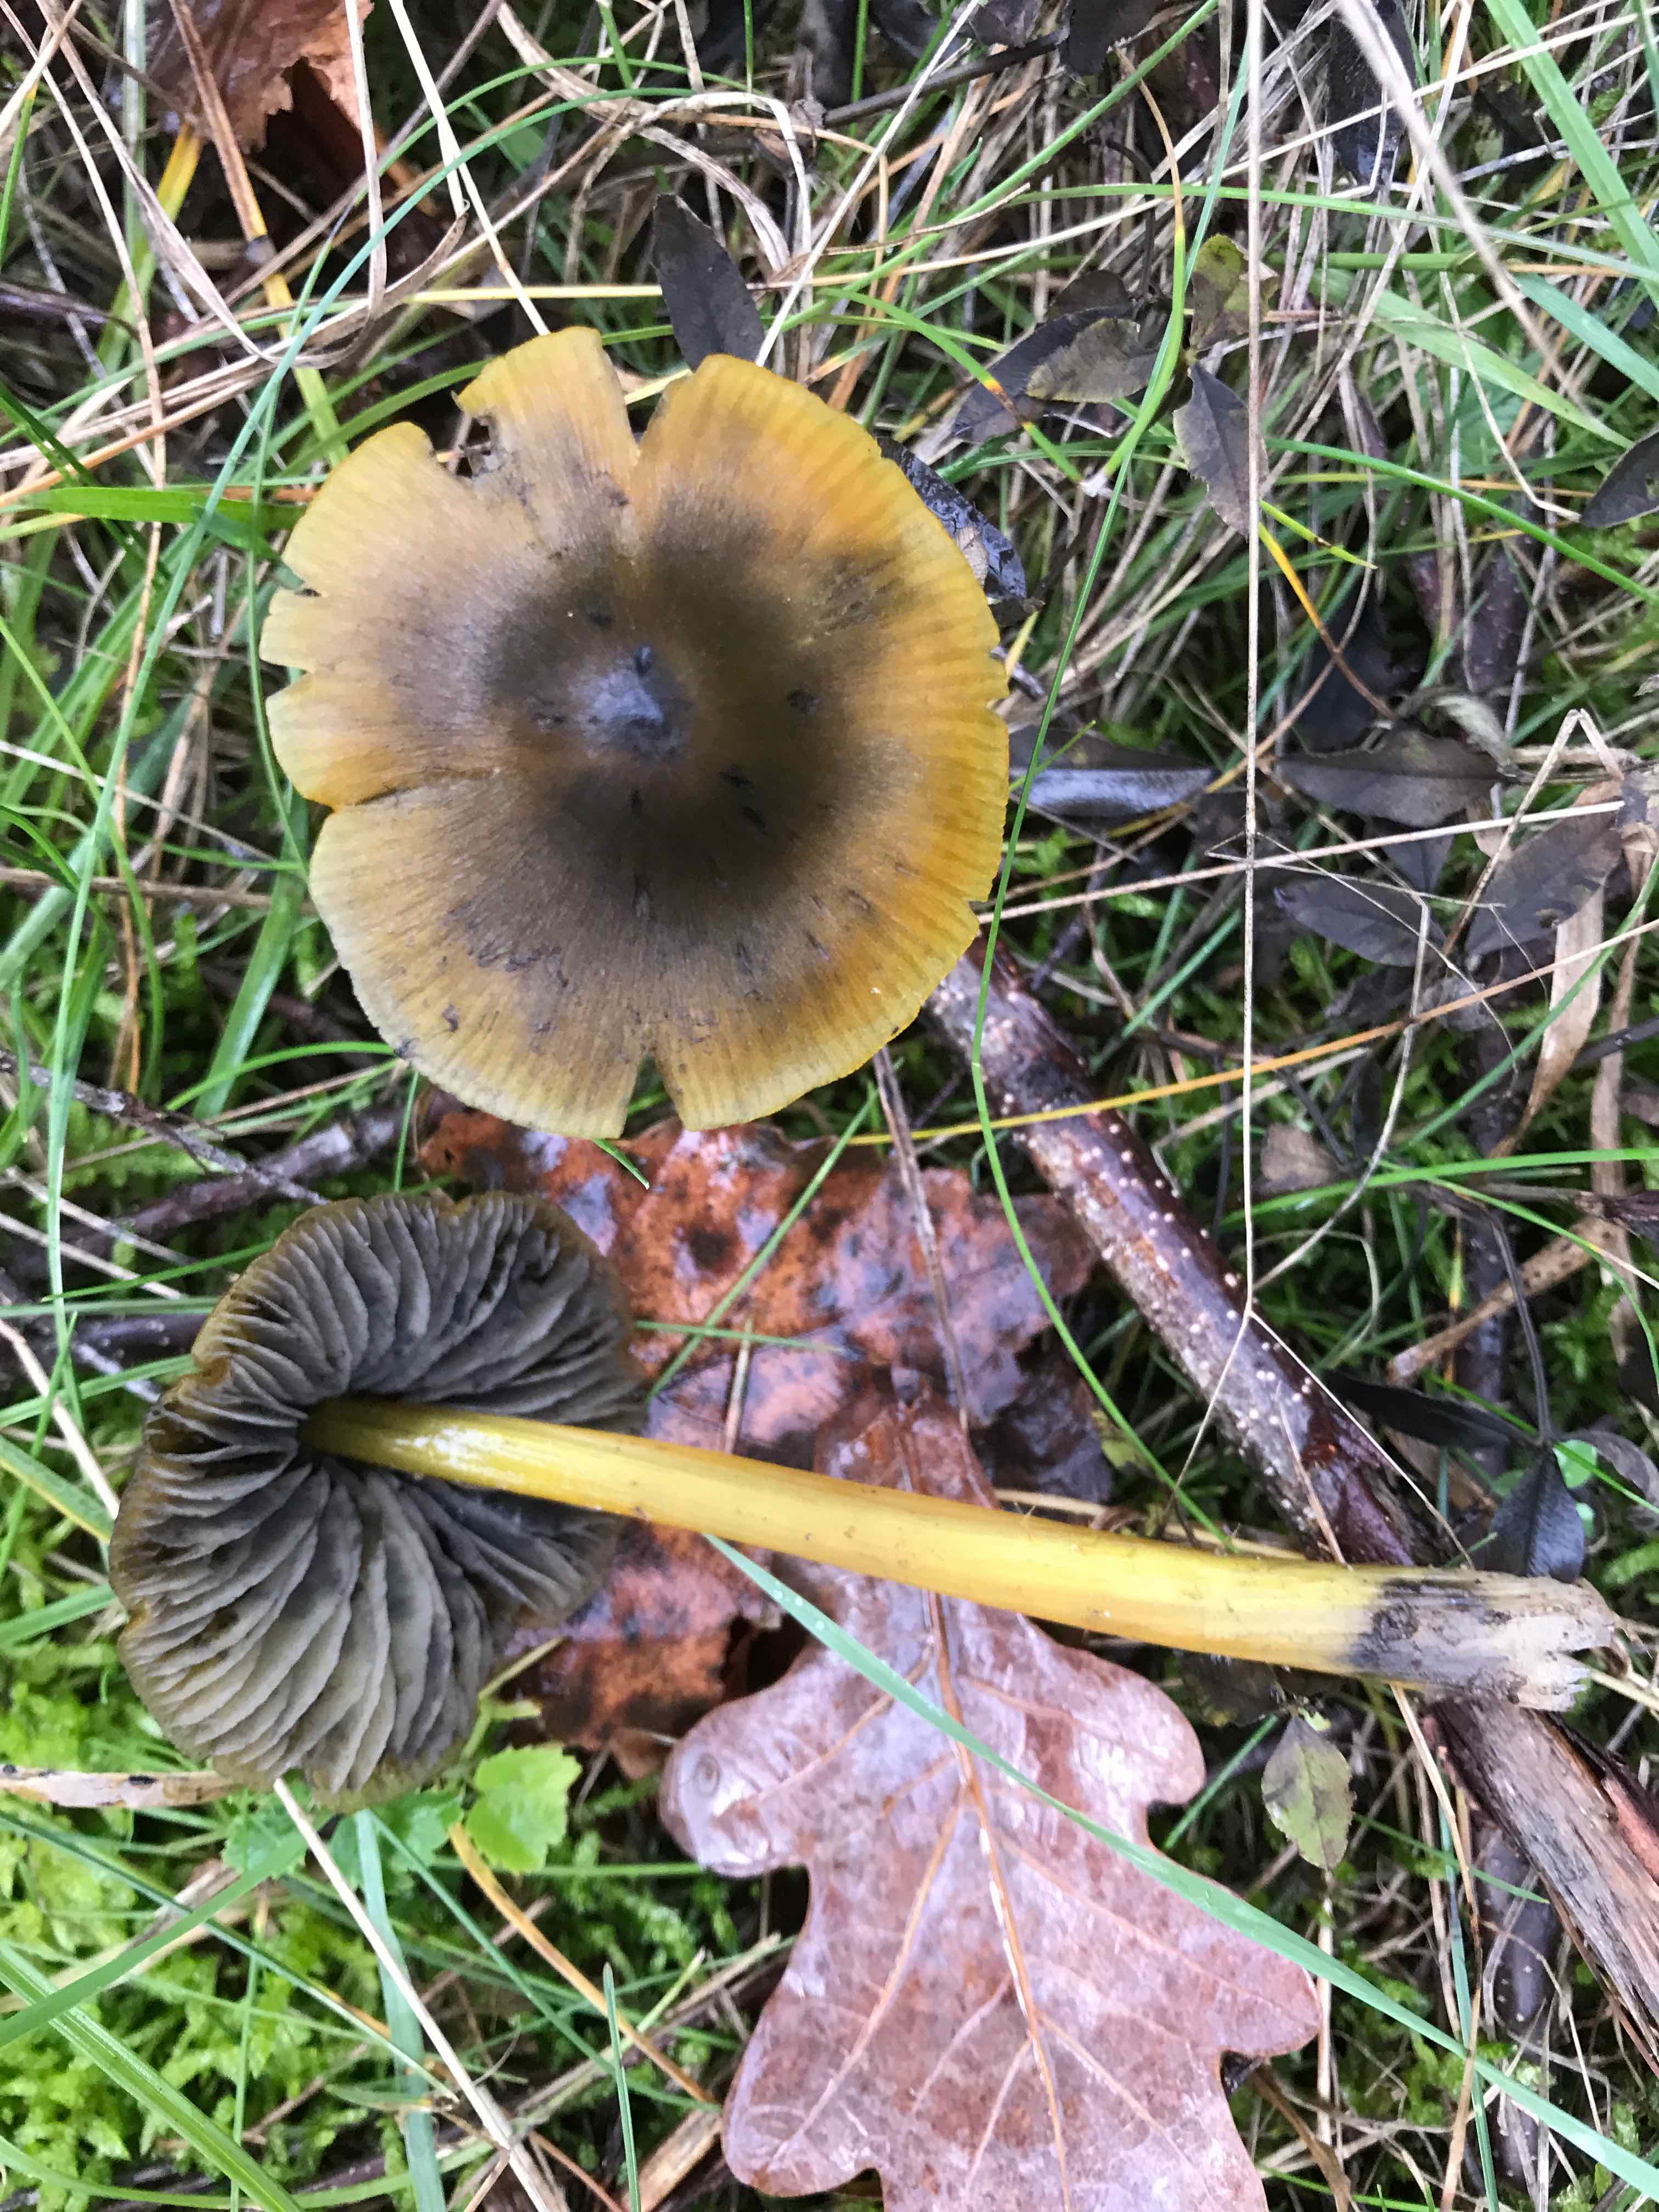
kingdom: Fungi
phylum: Basidiomycota
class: Agaricomycetes
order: Agaricales
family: Hygrophoraceae
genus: Hygrocybe
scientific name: Hygrocybe conica
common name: kegle-vokshat
